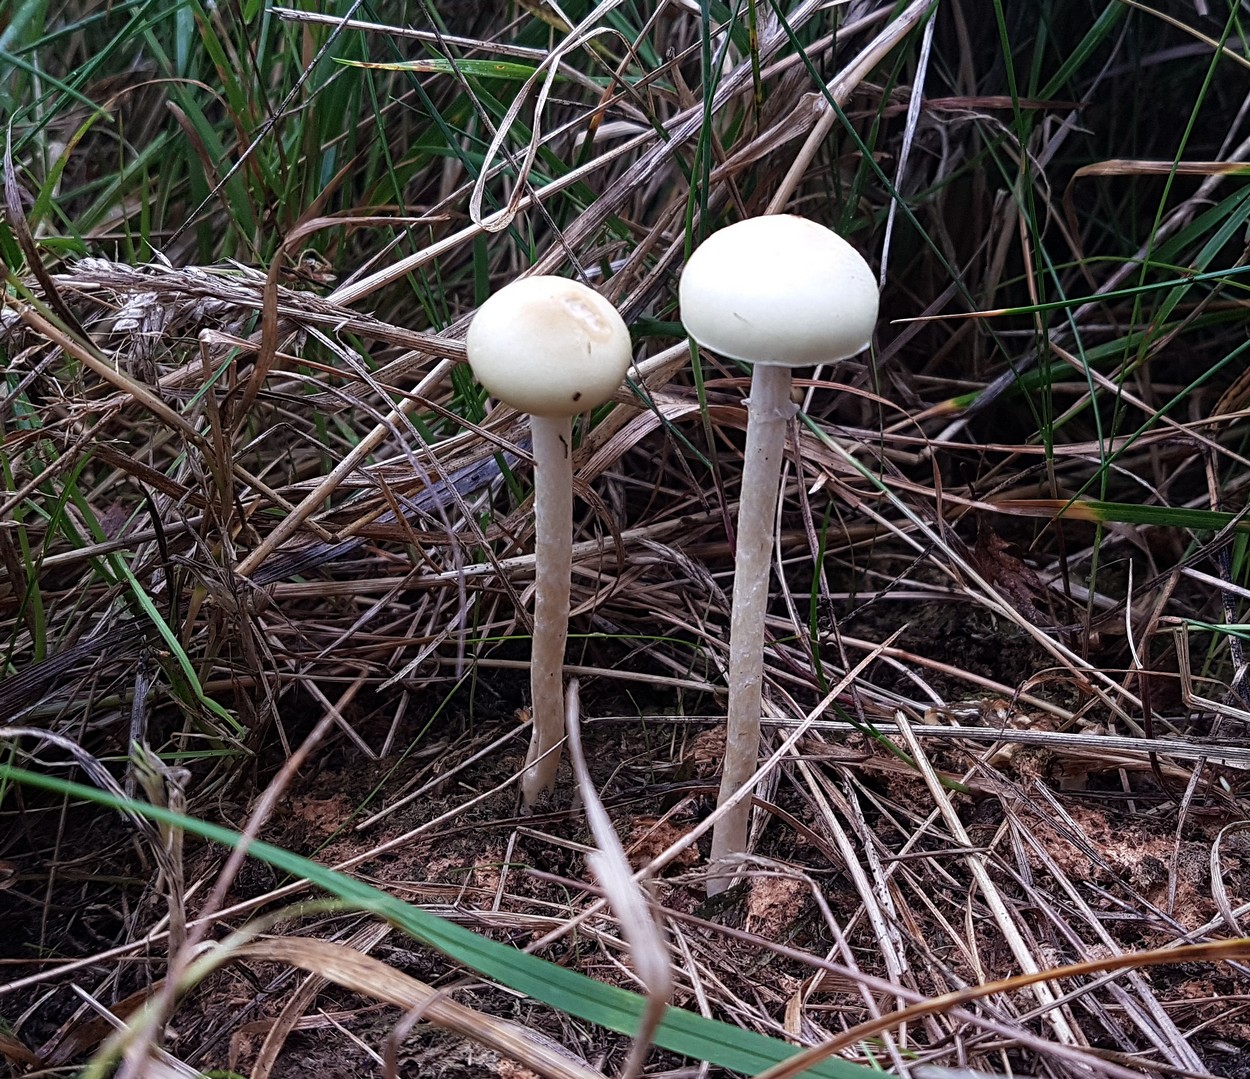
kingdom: Fungi
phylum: Basidiomycota
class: Agaricomycetes
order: Agaricales
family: Strophariaceae
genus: Protostropharia
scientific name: Protostropharia semiglobata
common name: halvkugleformet bredblad
